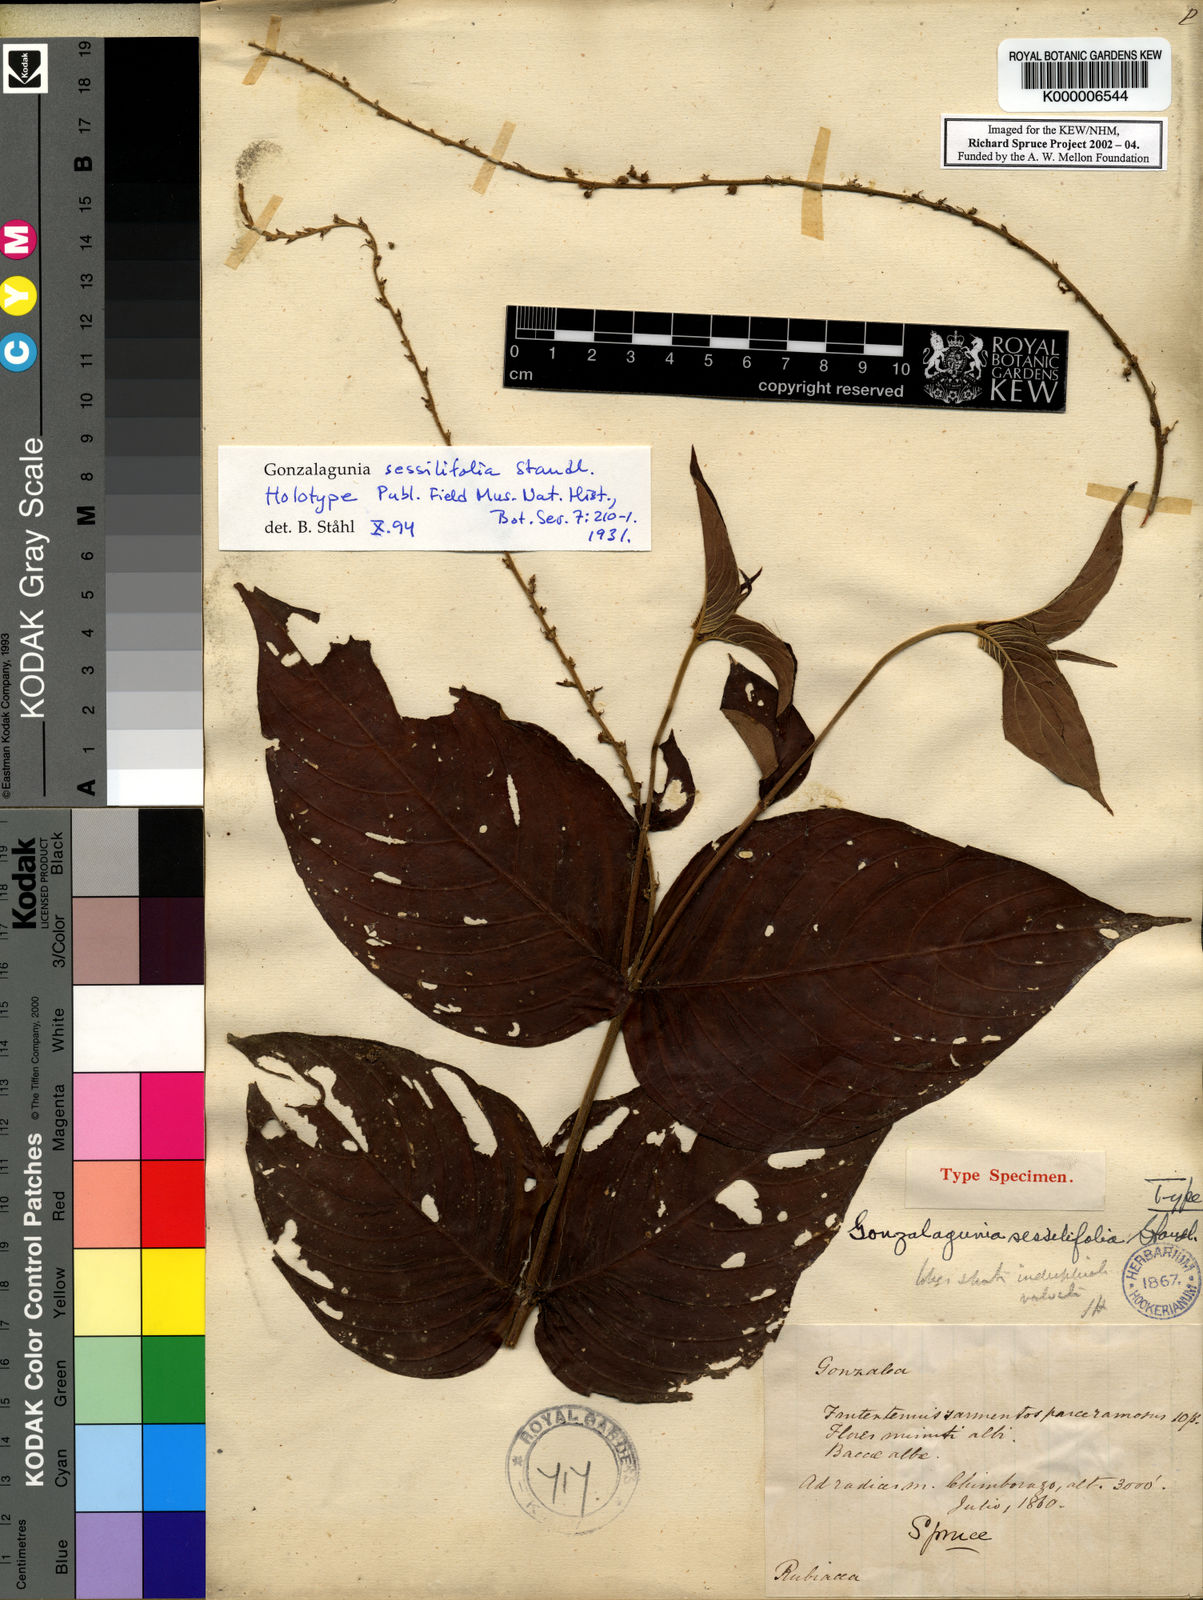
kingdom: Plantae
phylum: Tracheophyta
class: Magnoliopsida
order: Gentianales
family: Rubiaceae
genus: Gonzalagunia
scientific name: Gonzalagunia sessilifolia
